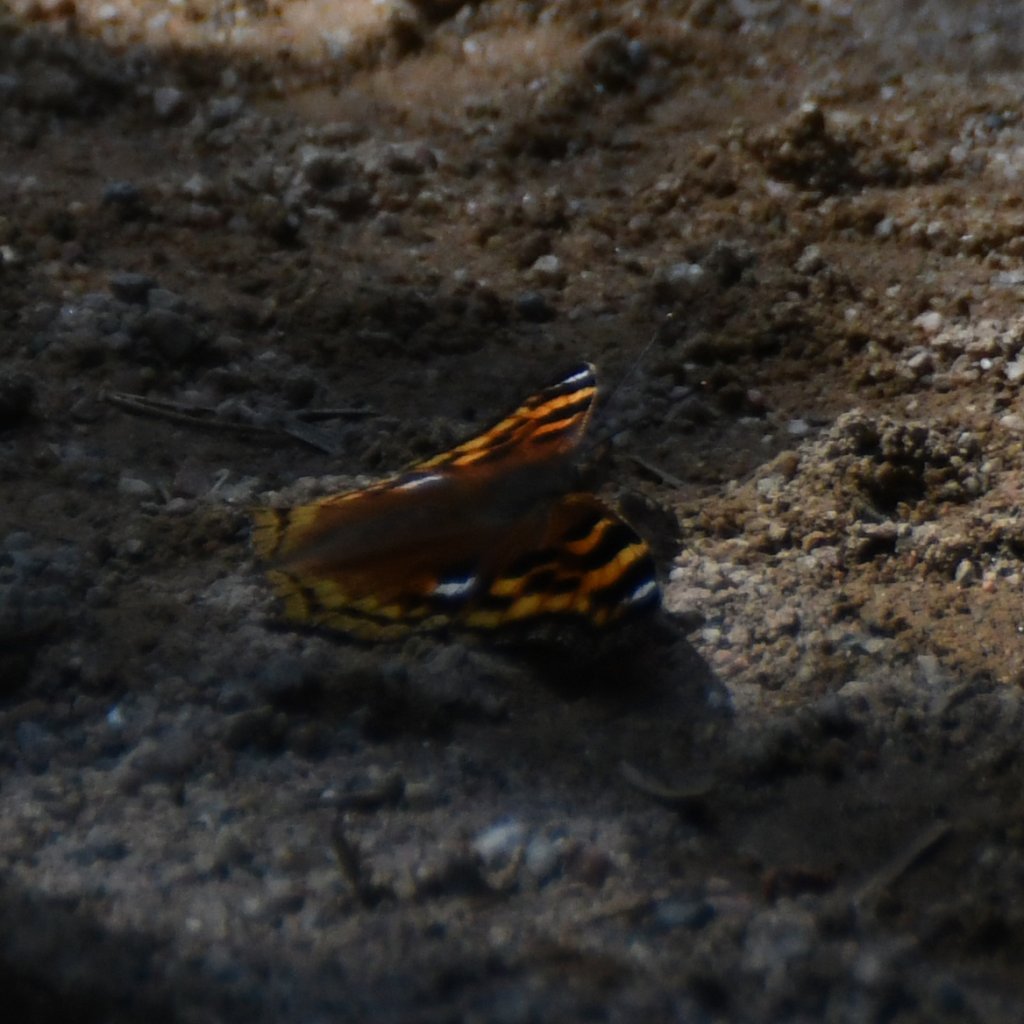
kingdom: Animalia
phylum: Arthropoda
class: Insecta
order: Lepidoptera
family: Nymphalidae
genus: Polygonia
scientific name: Polygonia vaualbum
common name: Compton Tortoiseshell
